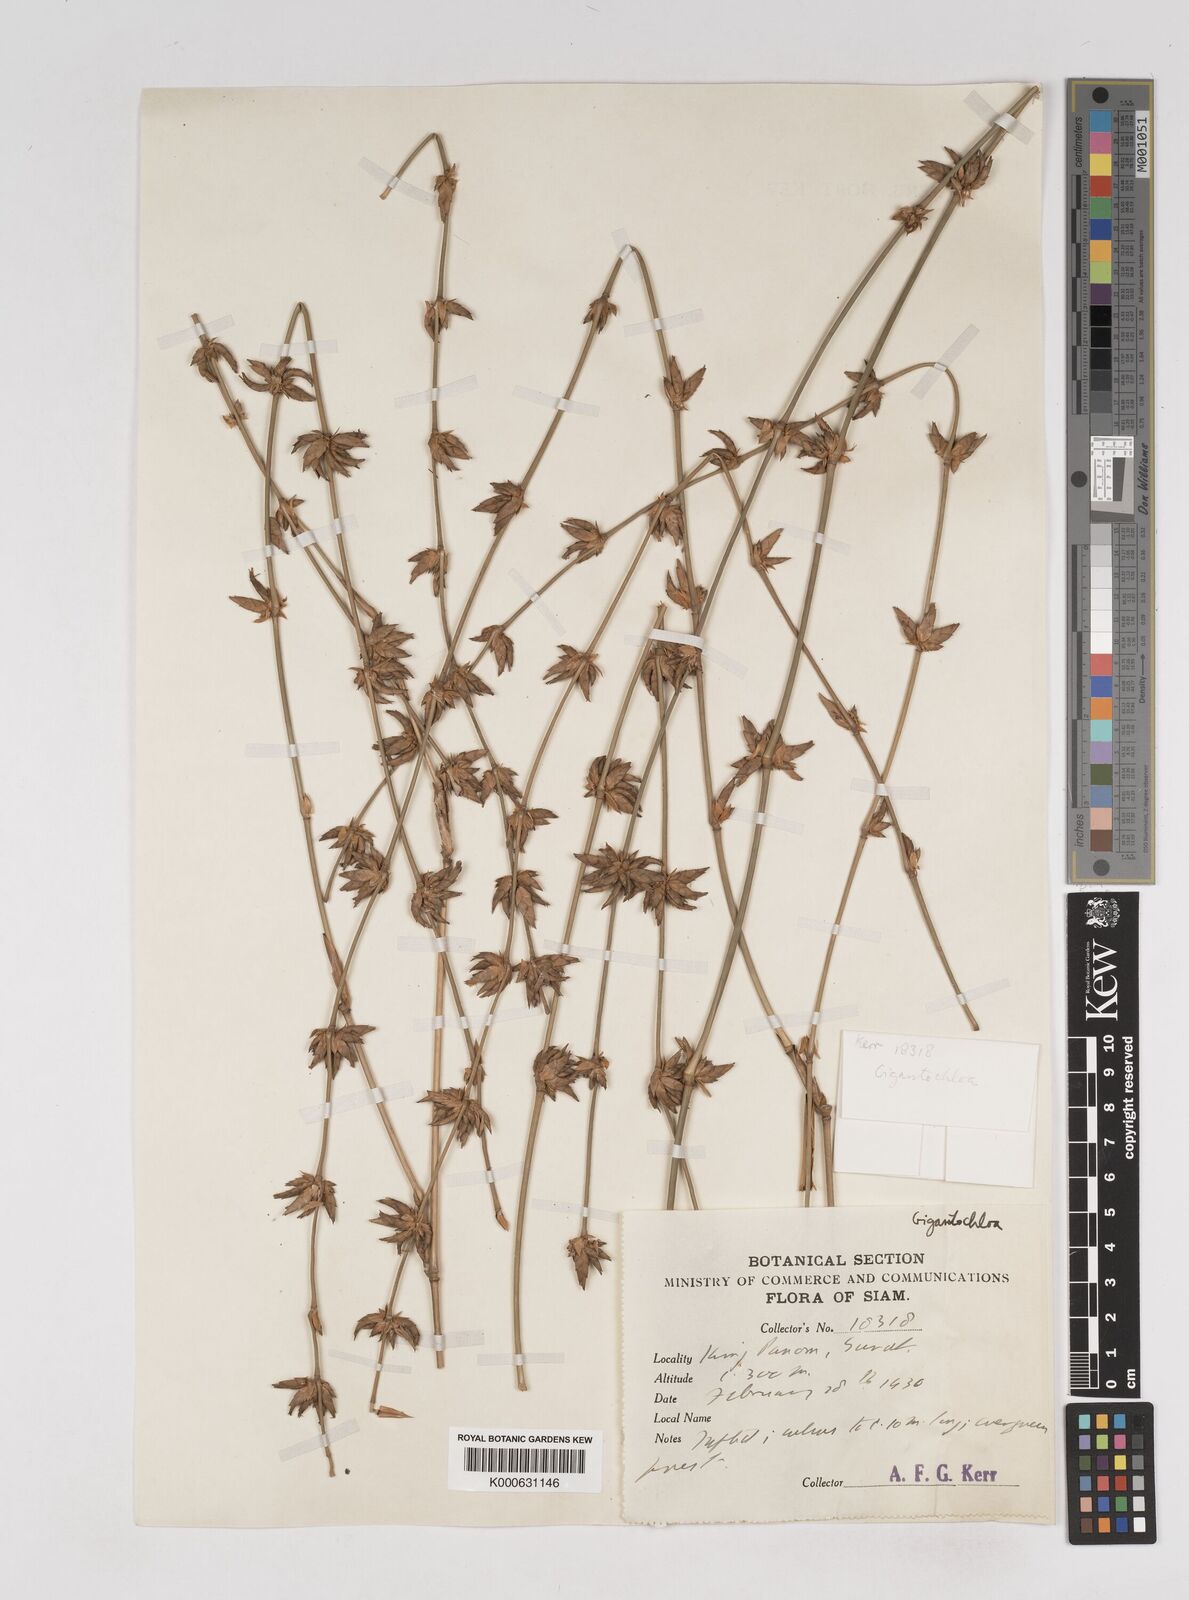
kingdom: Plantae
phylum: Tracheophyta
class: Liliopsida
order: Poales
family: Poaceae
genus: Gigantochloa
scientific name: Gigantochloa
